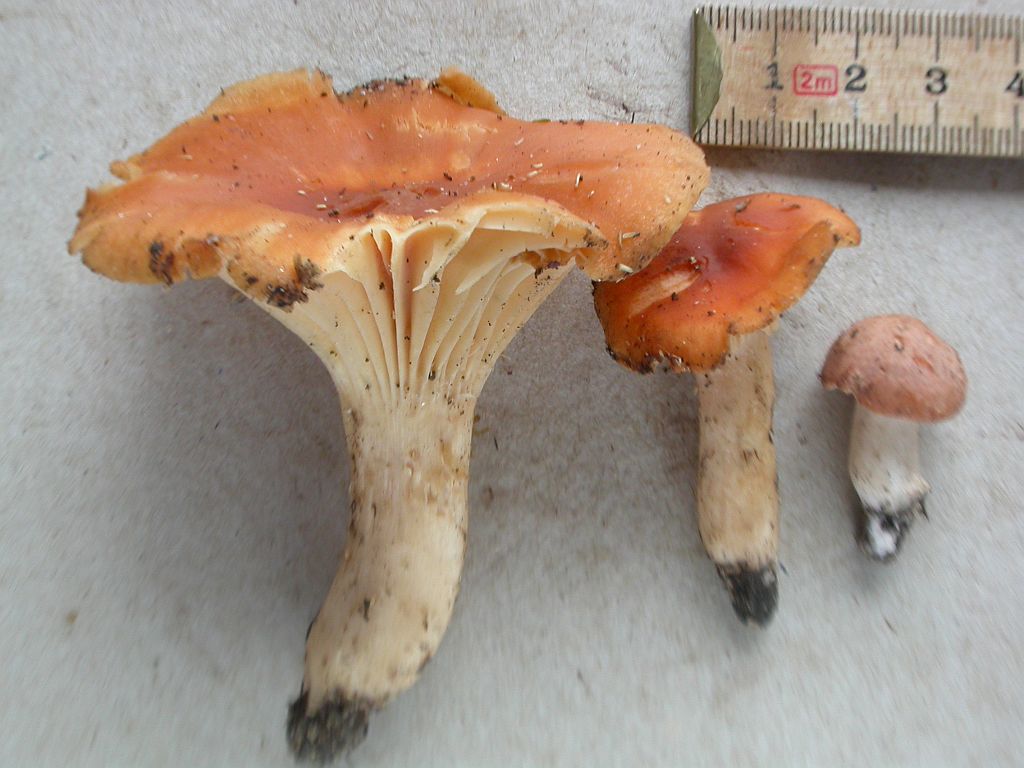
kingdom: Fungi
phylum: Basidiomycota
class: Agaricomycetes
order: Agaricales
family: Hygrophoraceae
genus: Cuphophyllus
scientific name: Cuphophyllus pratensis
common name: eng-vokshat
